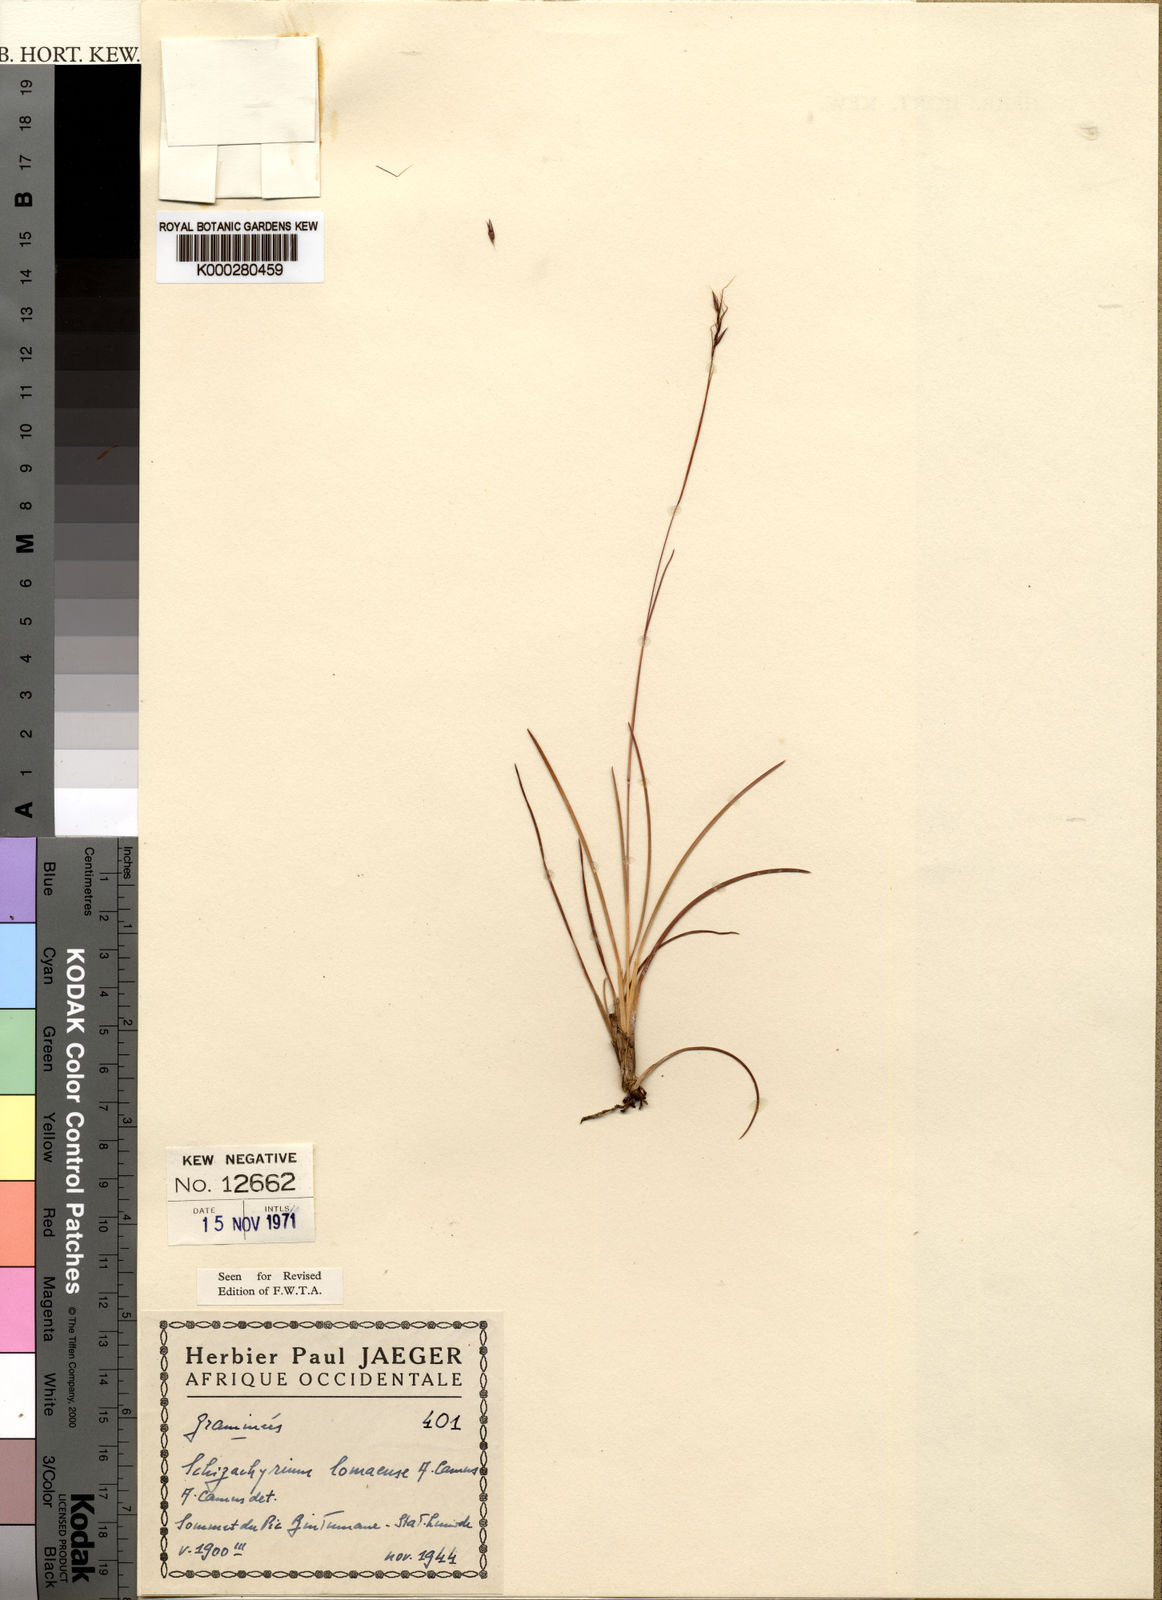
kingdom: Plantae
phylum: Tracheophyta
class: Liliopsida
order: Poales
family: Poaceae
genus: Schizachyrium
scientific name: Schizachyrium lomaense
